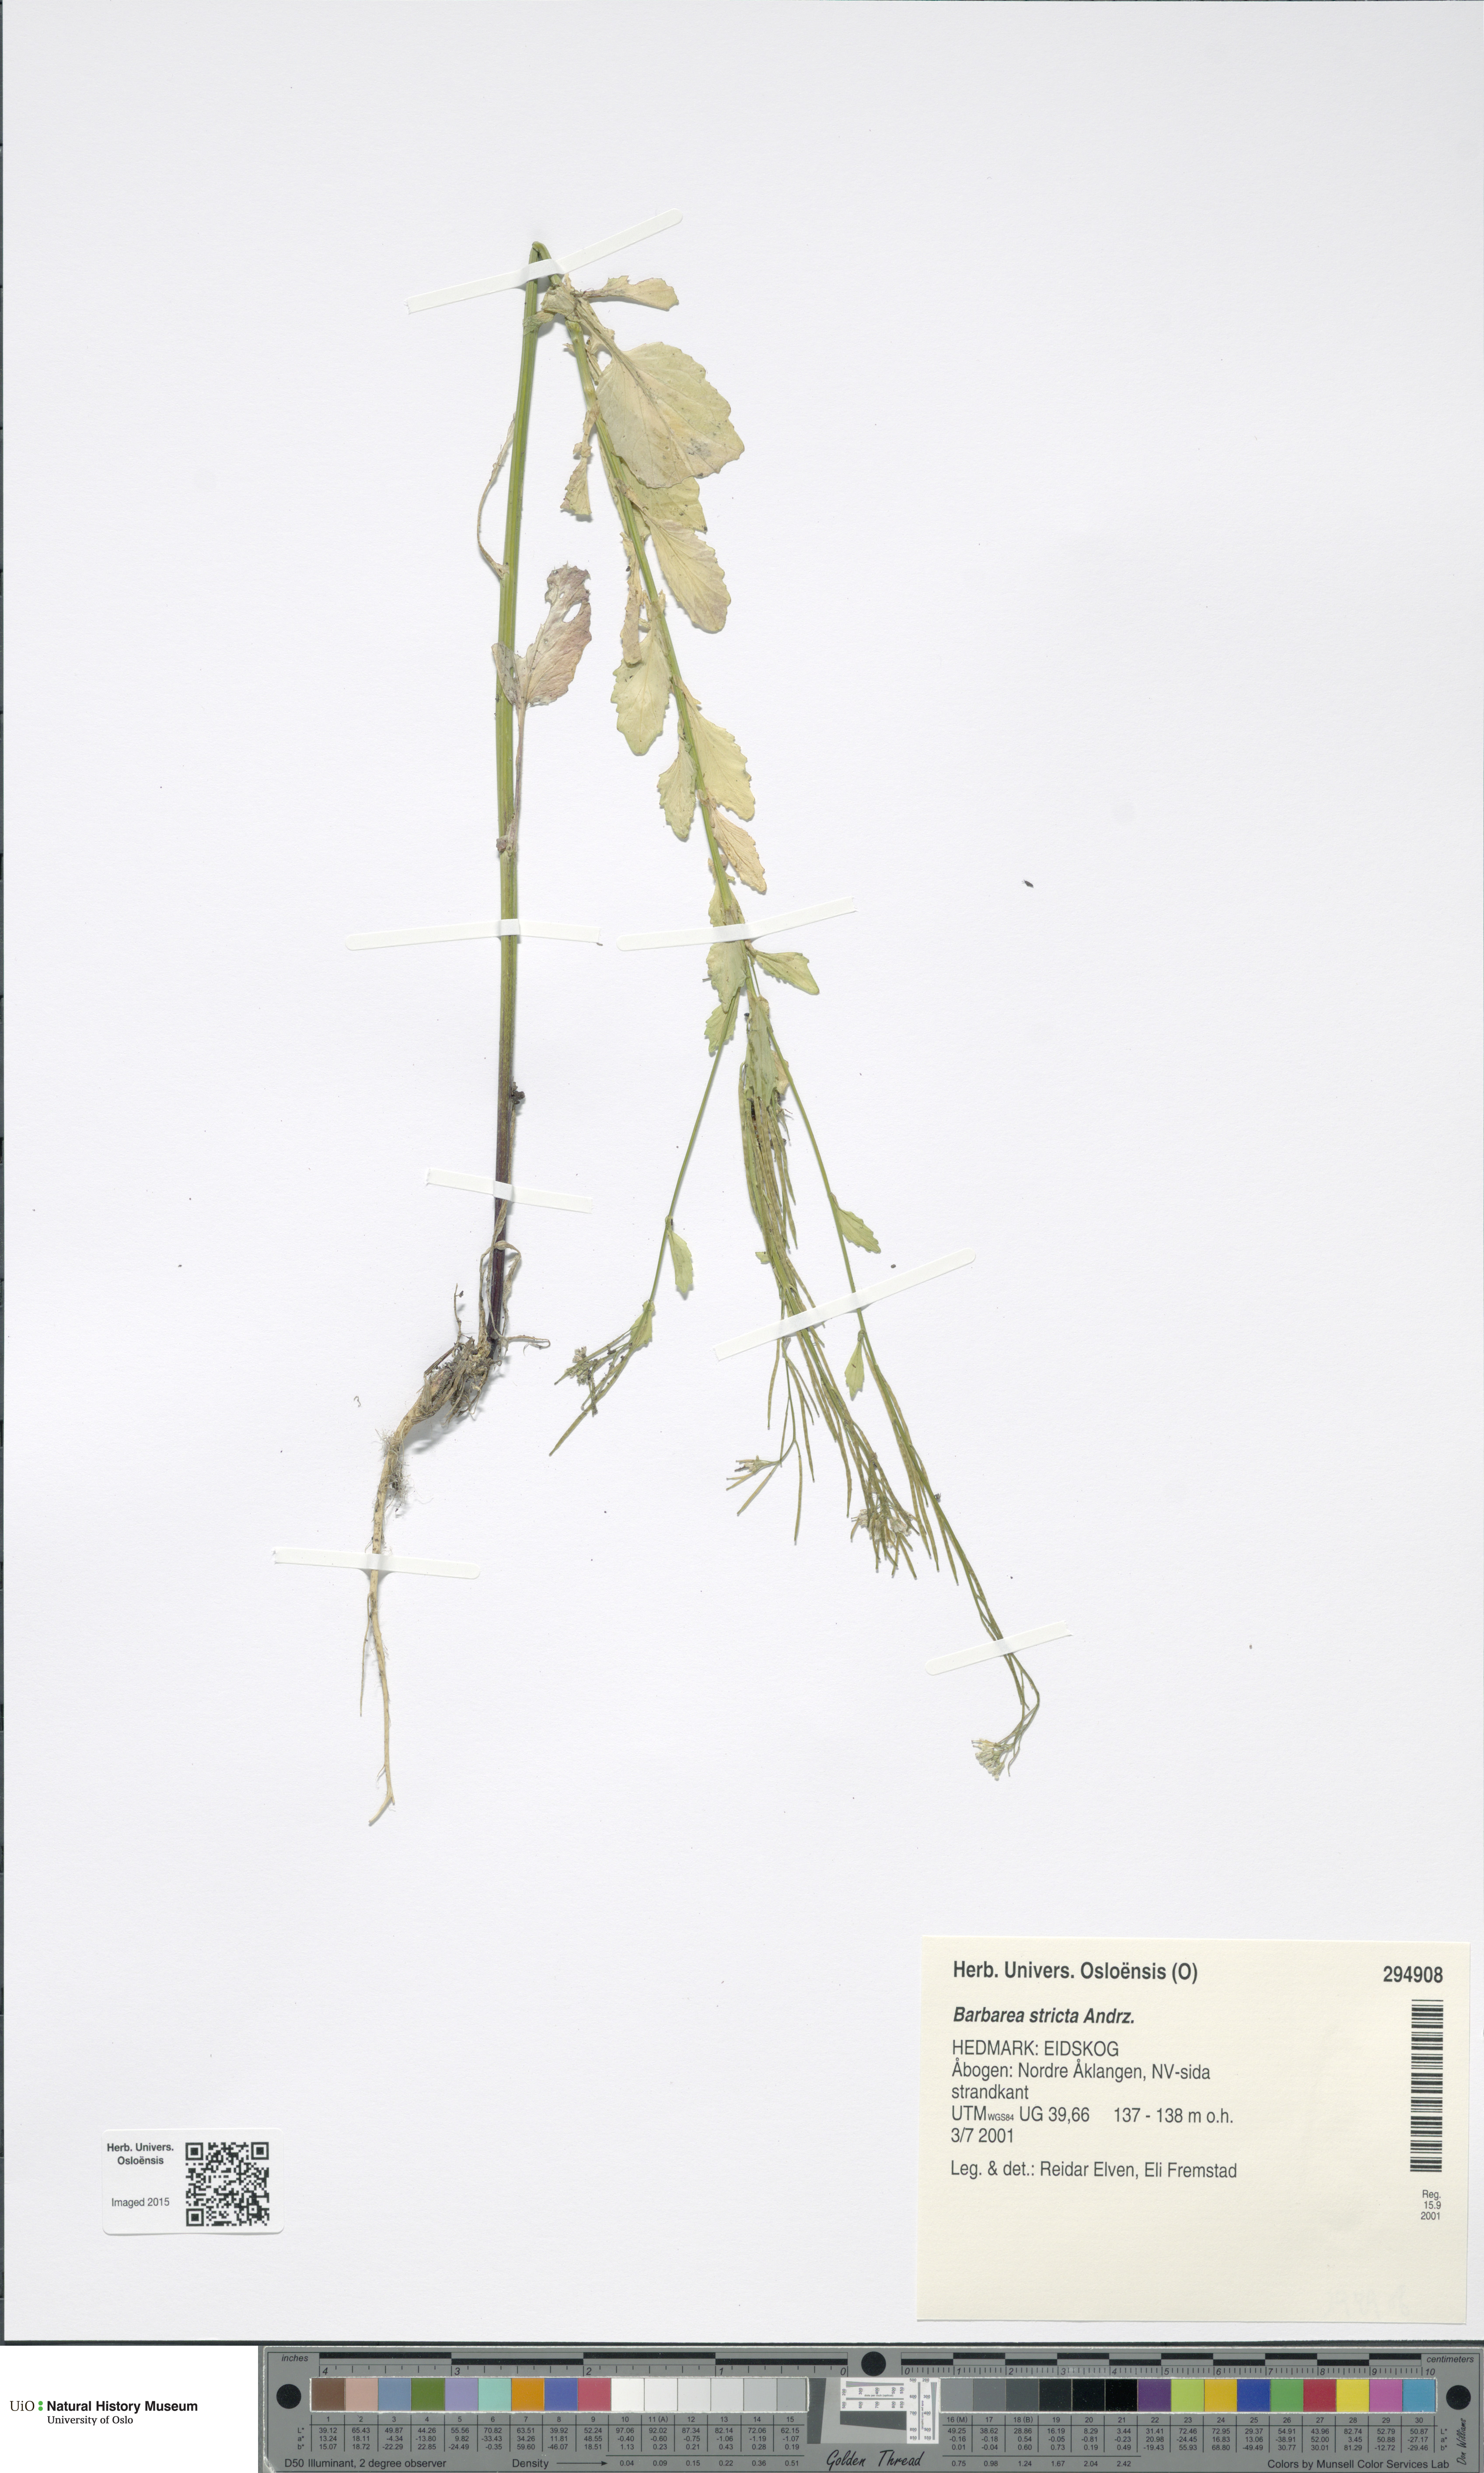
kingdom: Plantae
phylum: Tracheophyta
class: Magnoliopsida
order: Brassicales
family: Brassicaceae
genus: Barbarea
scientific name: Barbarea stricta
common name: Small-flowered winter-cress
